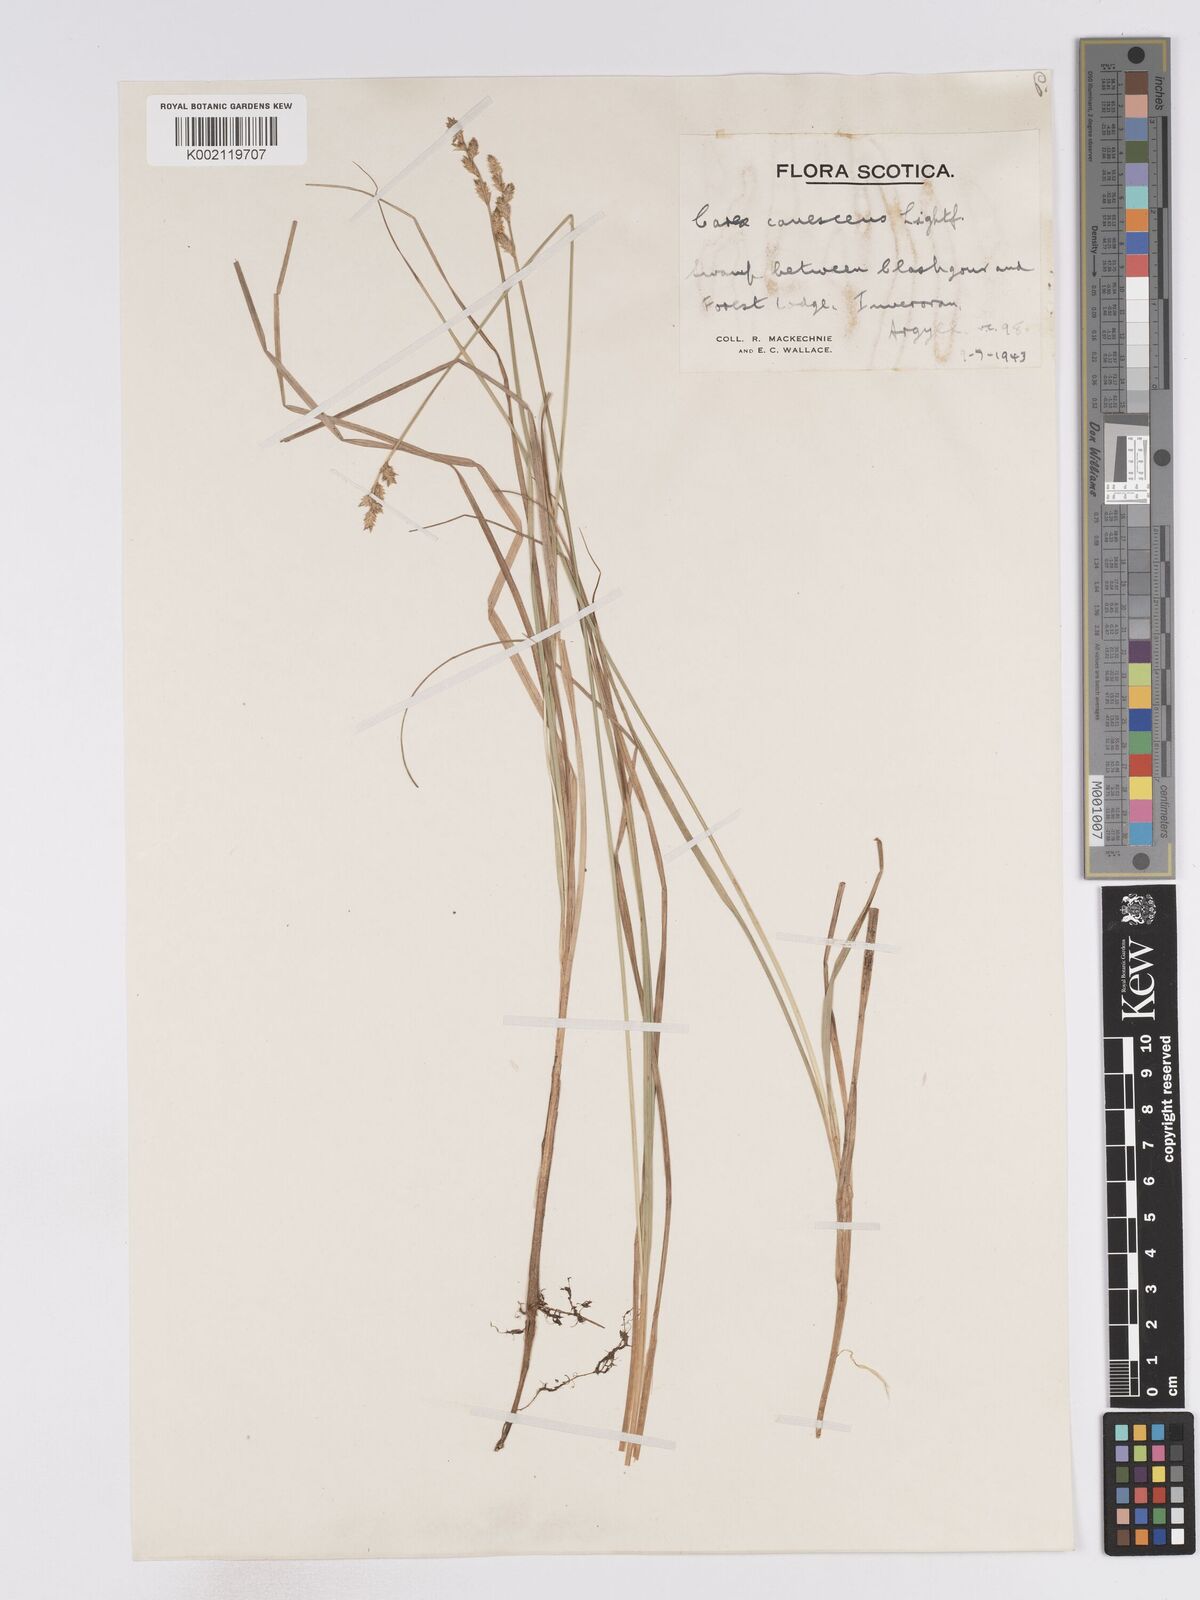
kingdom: Plantae
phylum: Tracheophyta
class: Liliopsida
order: Poales
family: Cyperaceae
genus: Carex
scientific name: Carex curta
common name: White sedge
